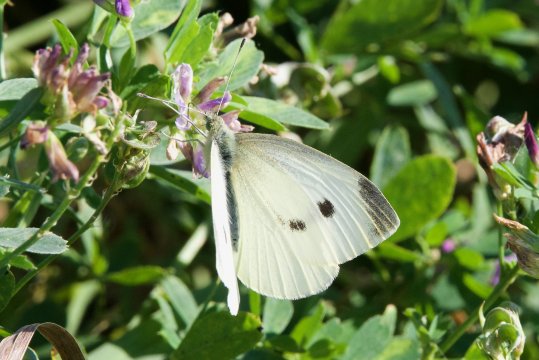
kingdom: Animalia
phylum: Arthropoda
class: Insecta
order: Lepidoptera
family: Pieridae
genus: Pieris
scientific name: Pieris rapae
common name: Cabbage White
